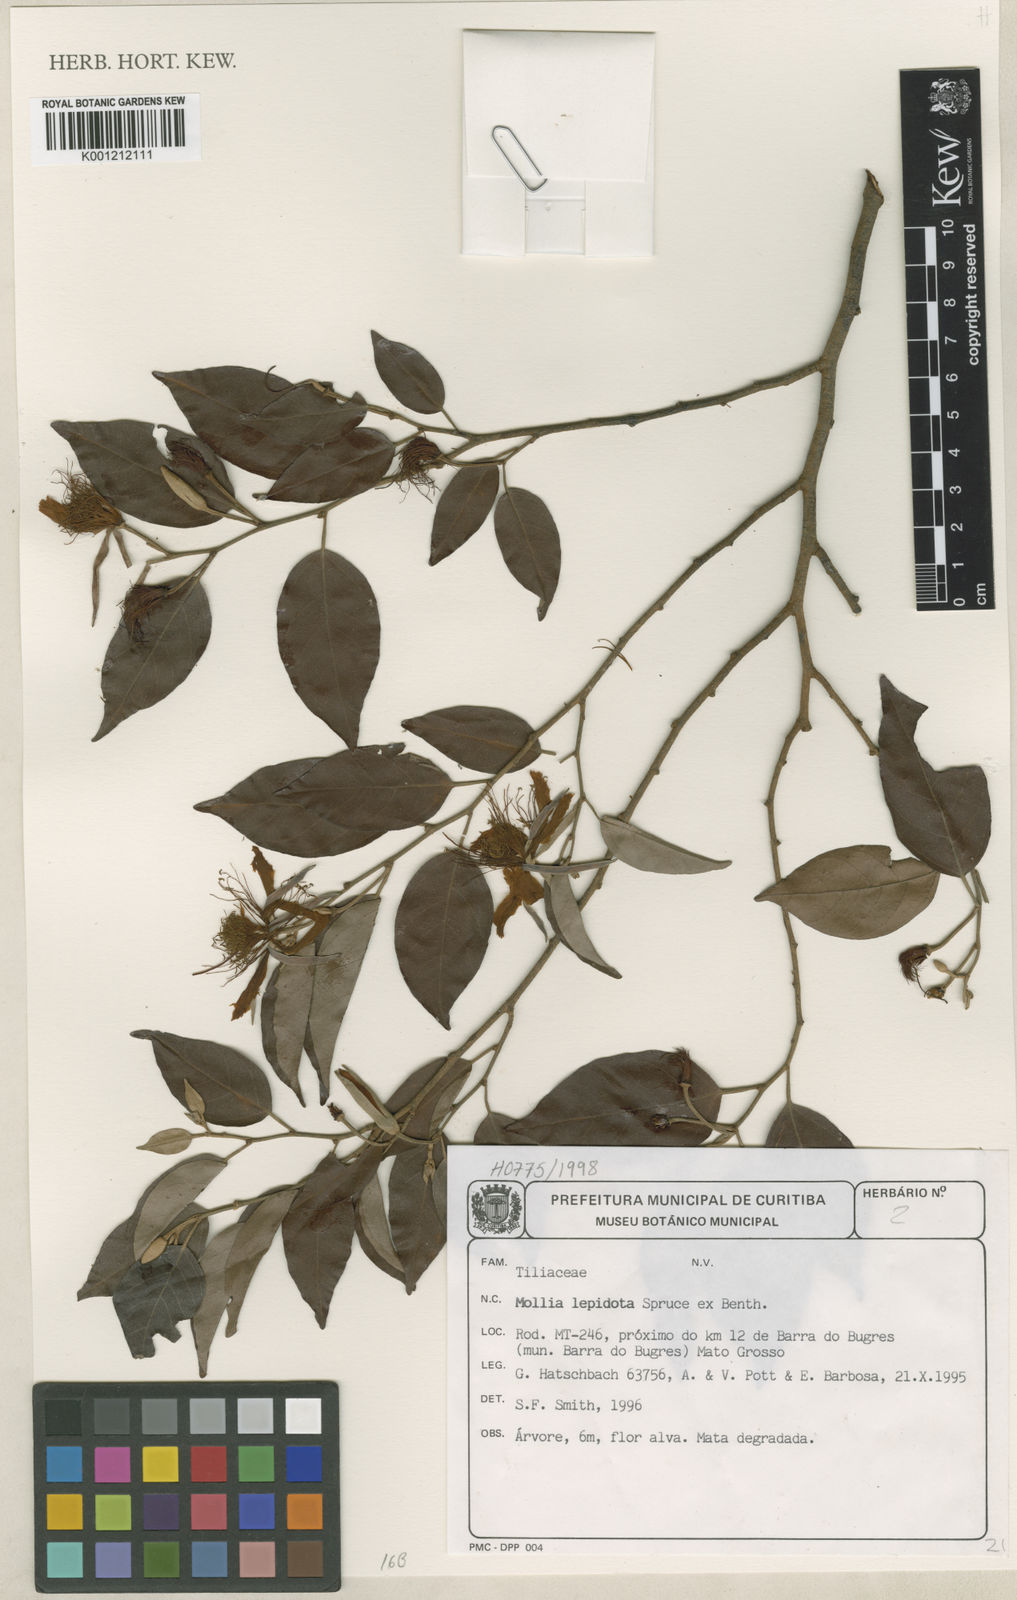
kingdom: Plantae
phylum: Tracheophyta
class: Magnoliopsida
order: Malvales
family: Malvaceae
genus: Mollia
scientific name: Mollia lepidota
